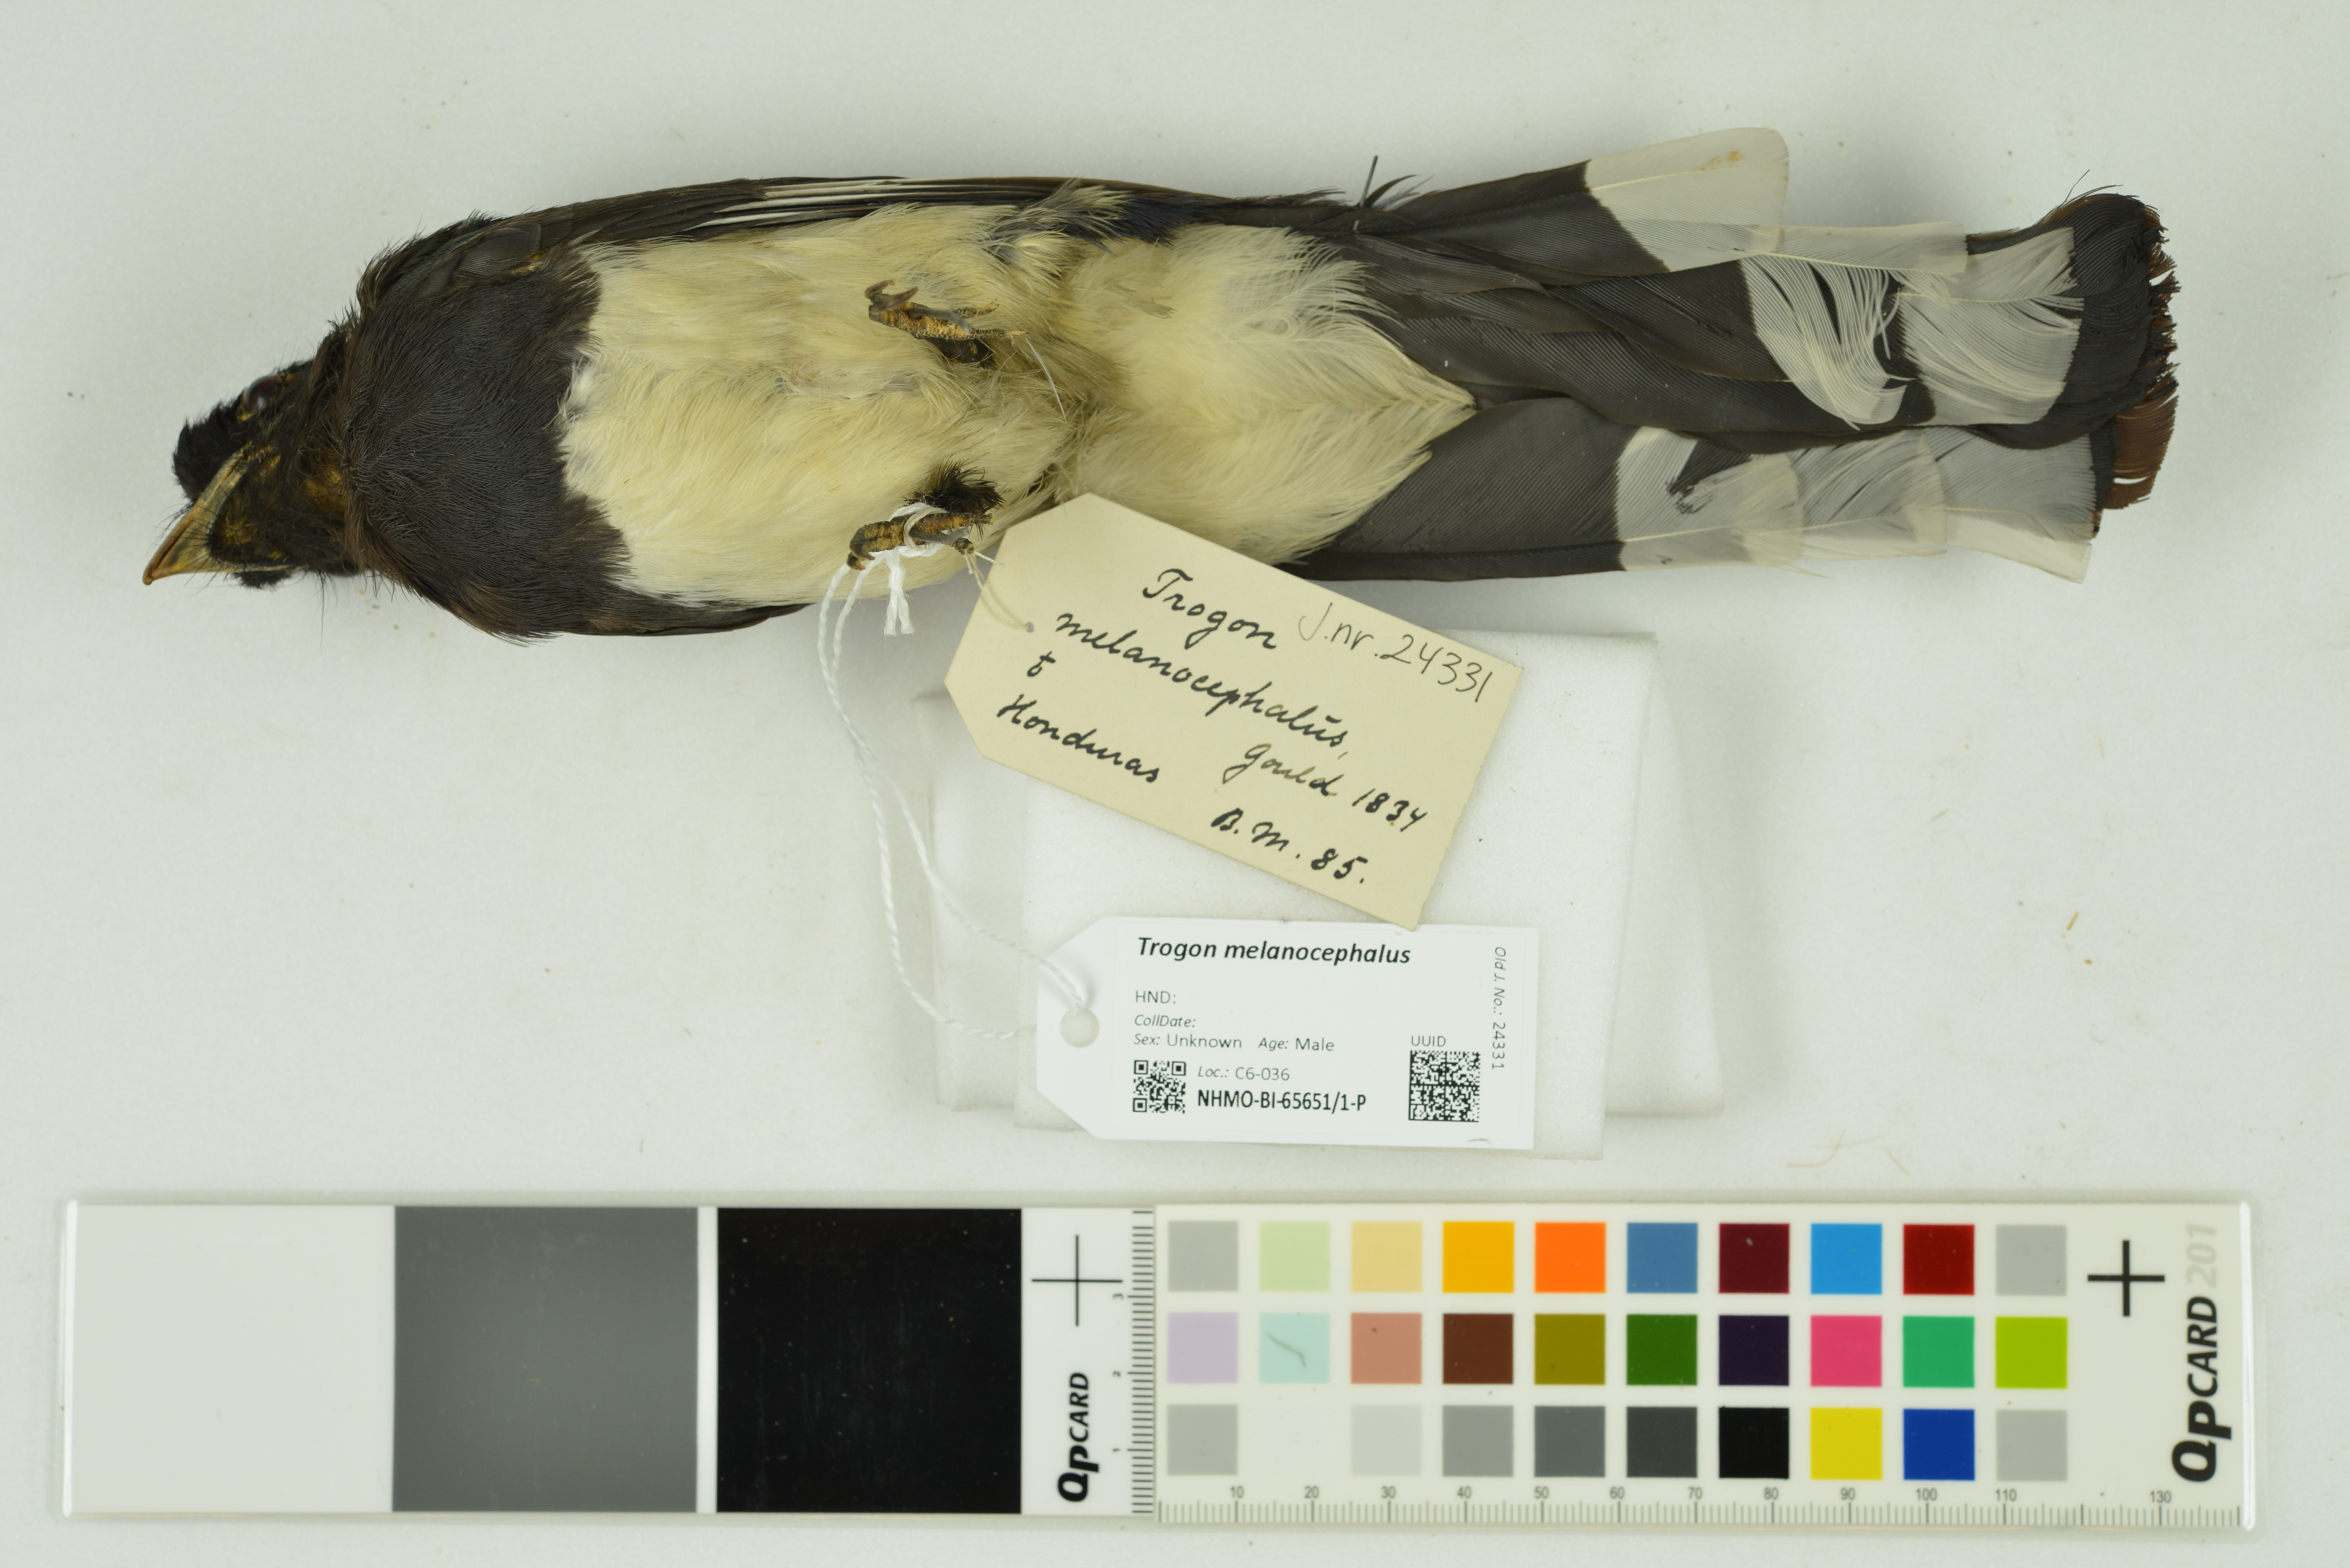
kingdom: Animalia
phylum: Chordata
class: Aves
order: Trogoniformes
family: Trogonidae
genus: Trogon
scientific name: Trogon melanocephalus
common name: Black-headed trogon
